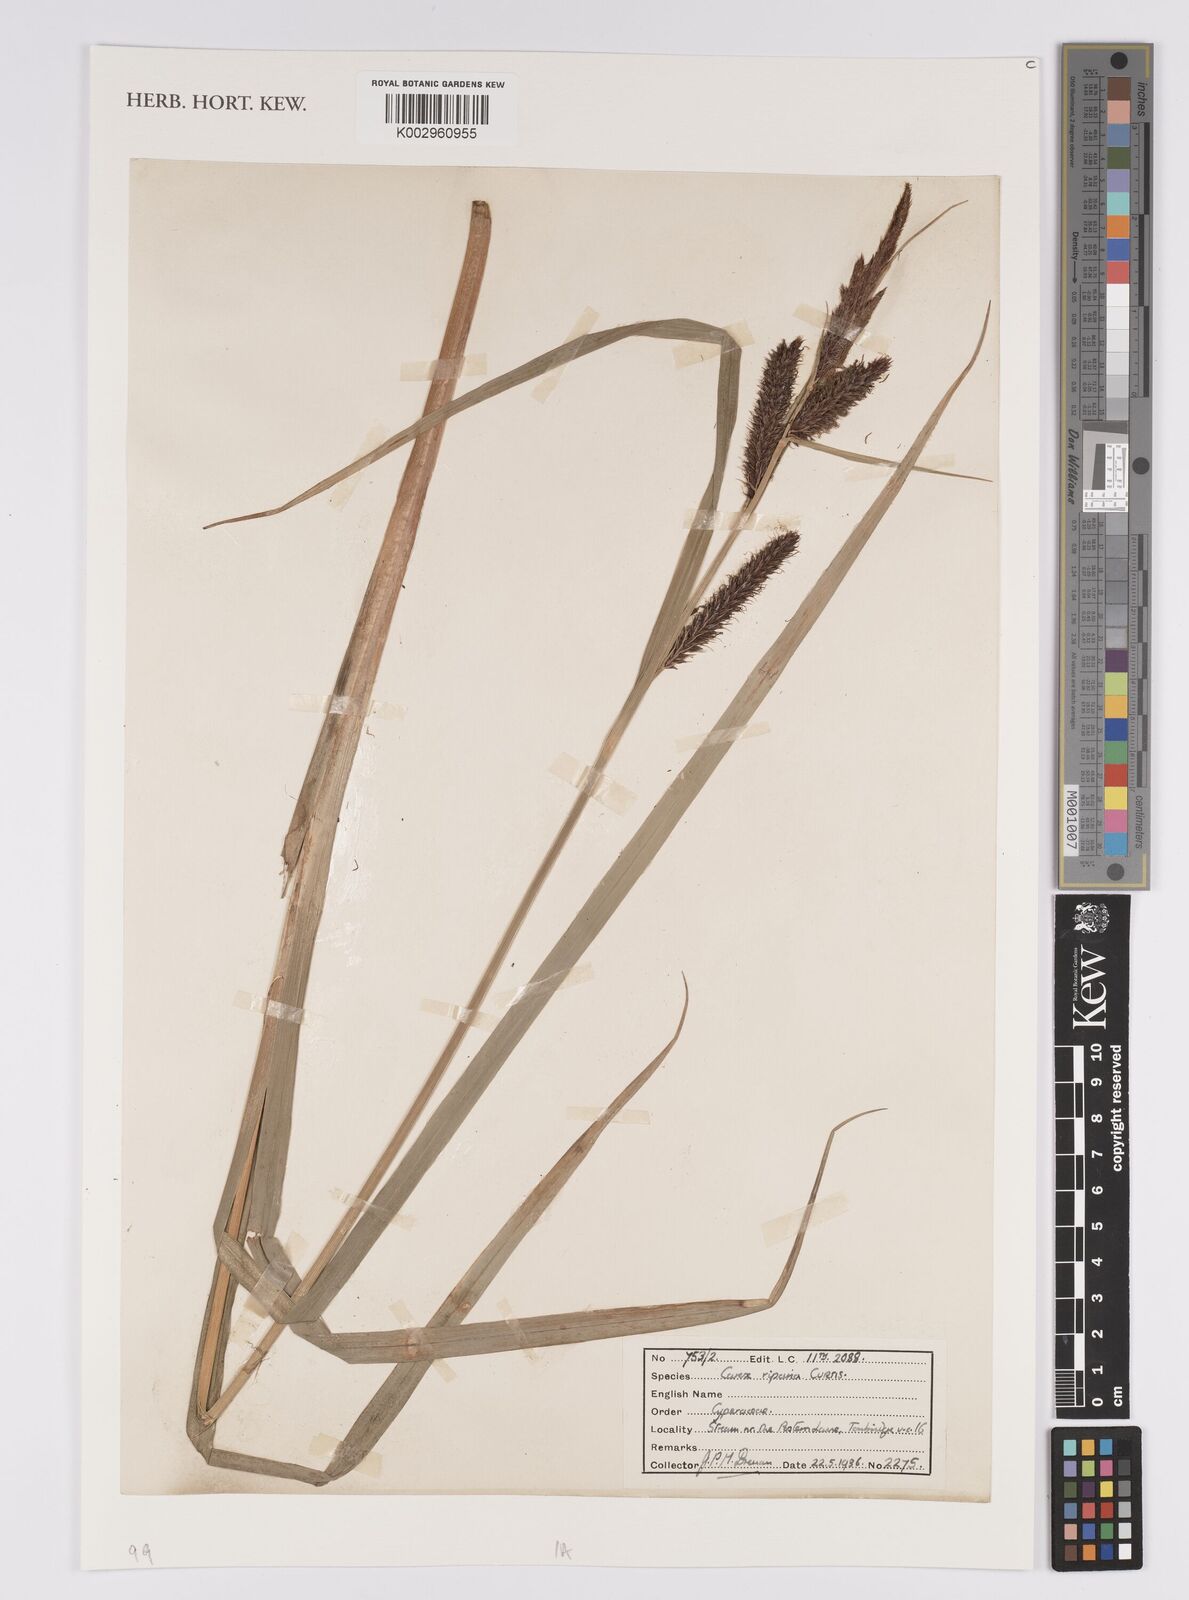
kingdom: Plantae
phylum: Tracheophyta
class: Liliopsida
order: Poales
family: Cyperaceae
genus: Carex
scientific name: Carex riparia
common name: Greater pond-sedge
